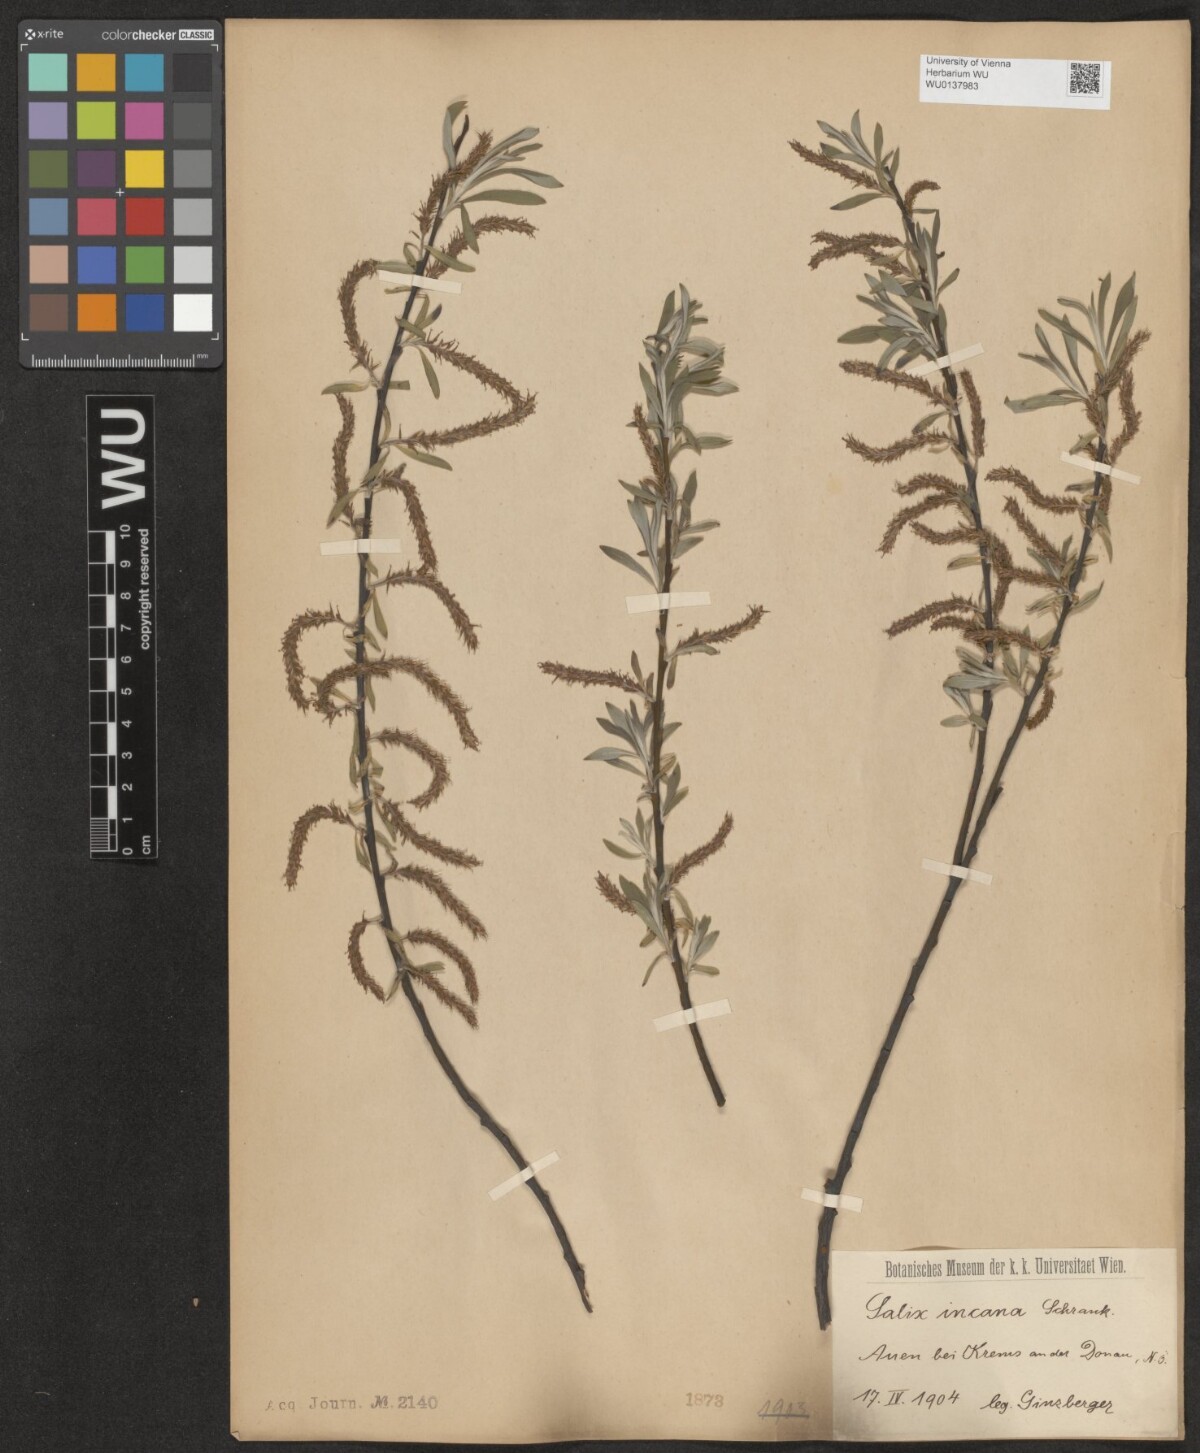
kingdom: Plantae
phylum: Tracheophyta
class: Magnoliopsida
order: Malpighiales
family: Salicaceae
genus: Salix
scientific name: Salix eleagnos
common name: Elaeagnus willow
